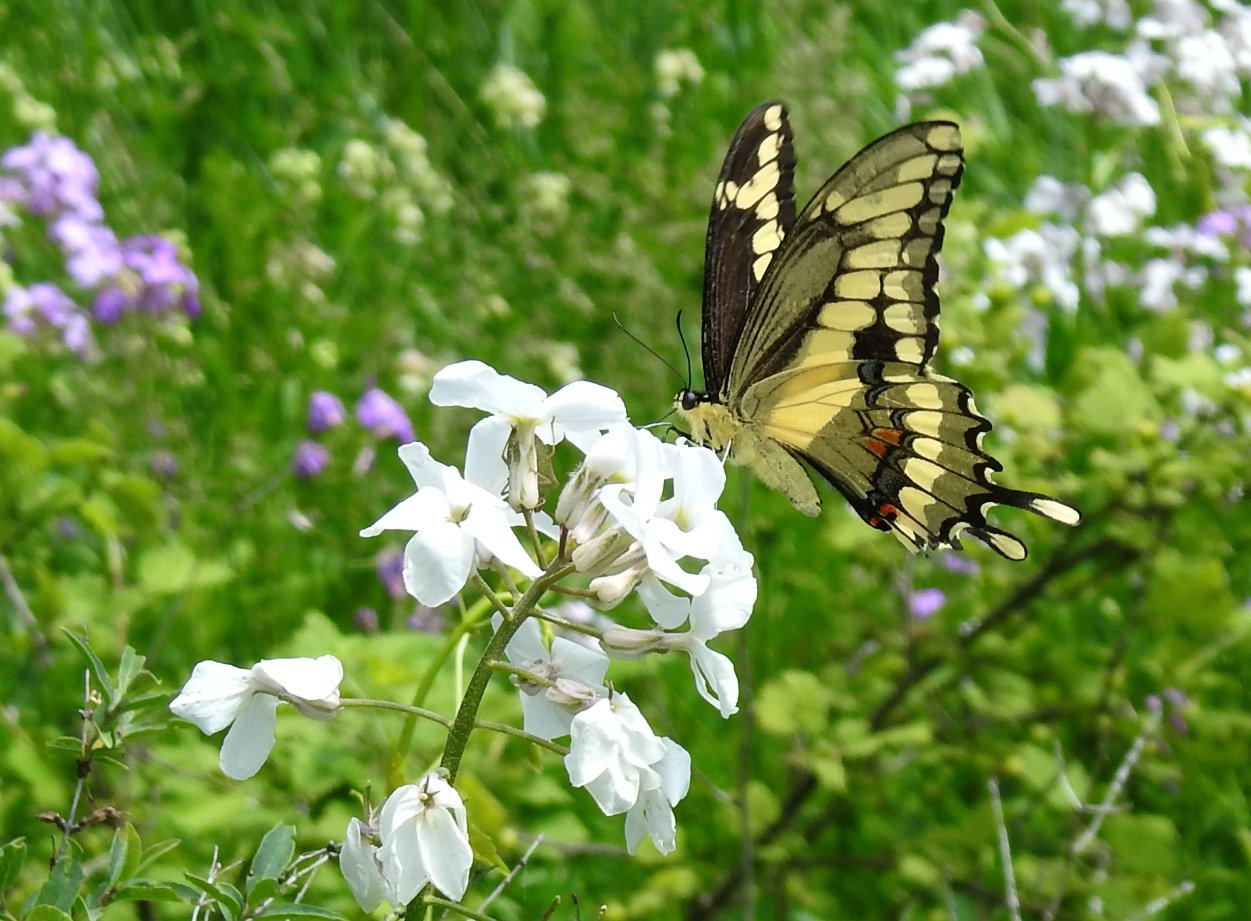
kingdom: Animalia
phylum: Arthropoda
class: Insecta
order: Lepidoptera
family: Papilionidae
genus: Papilio
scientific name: Papilio cresphontes
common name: Eastern Giant Swallowtail
